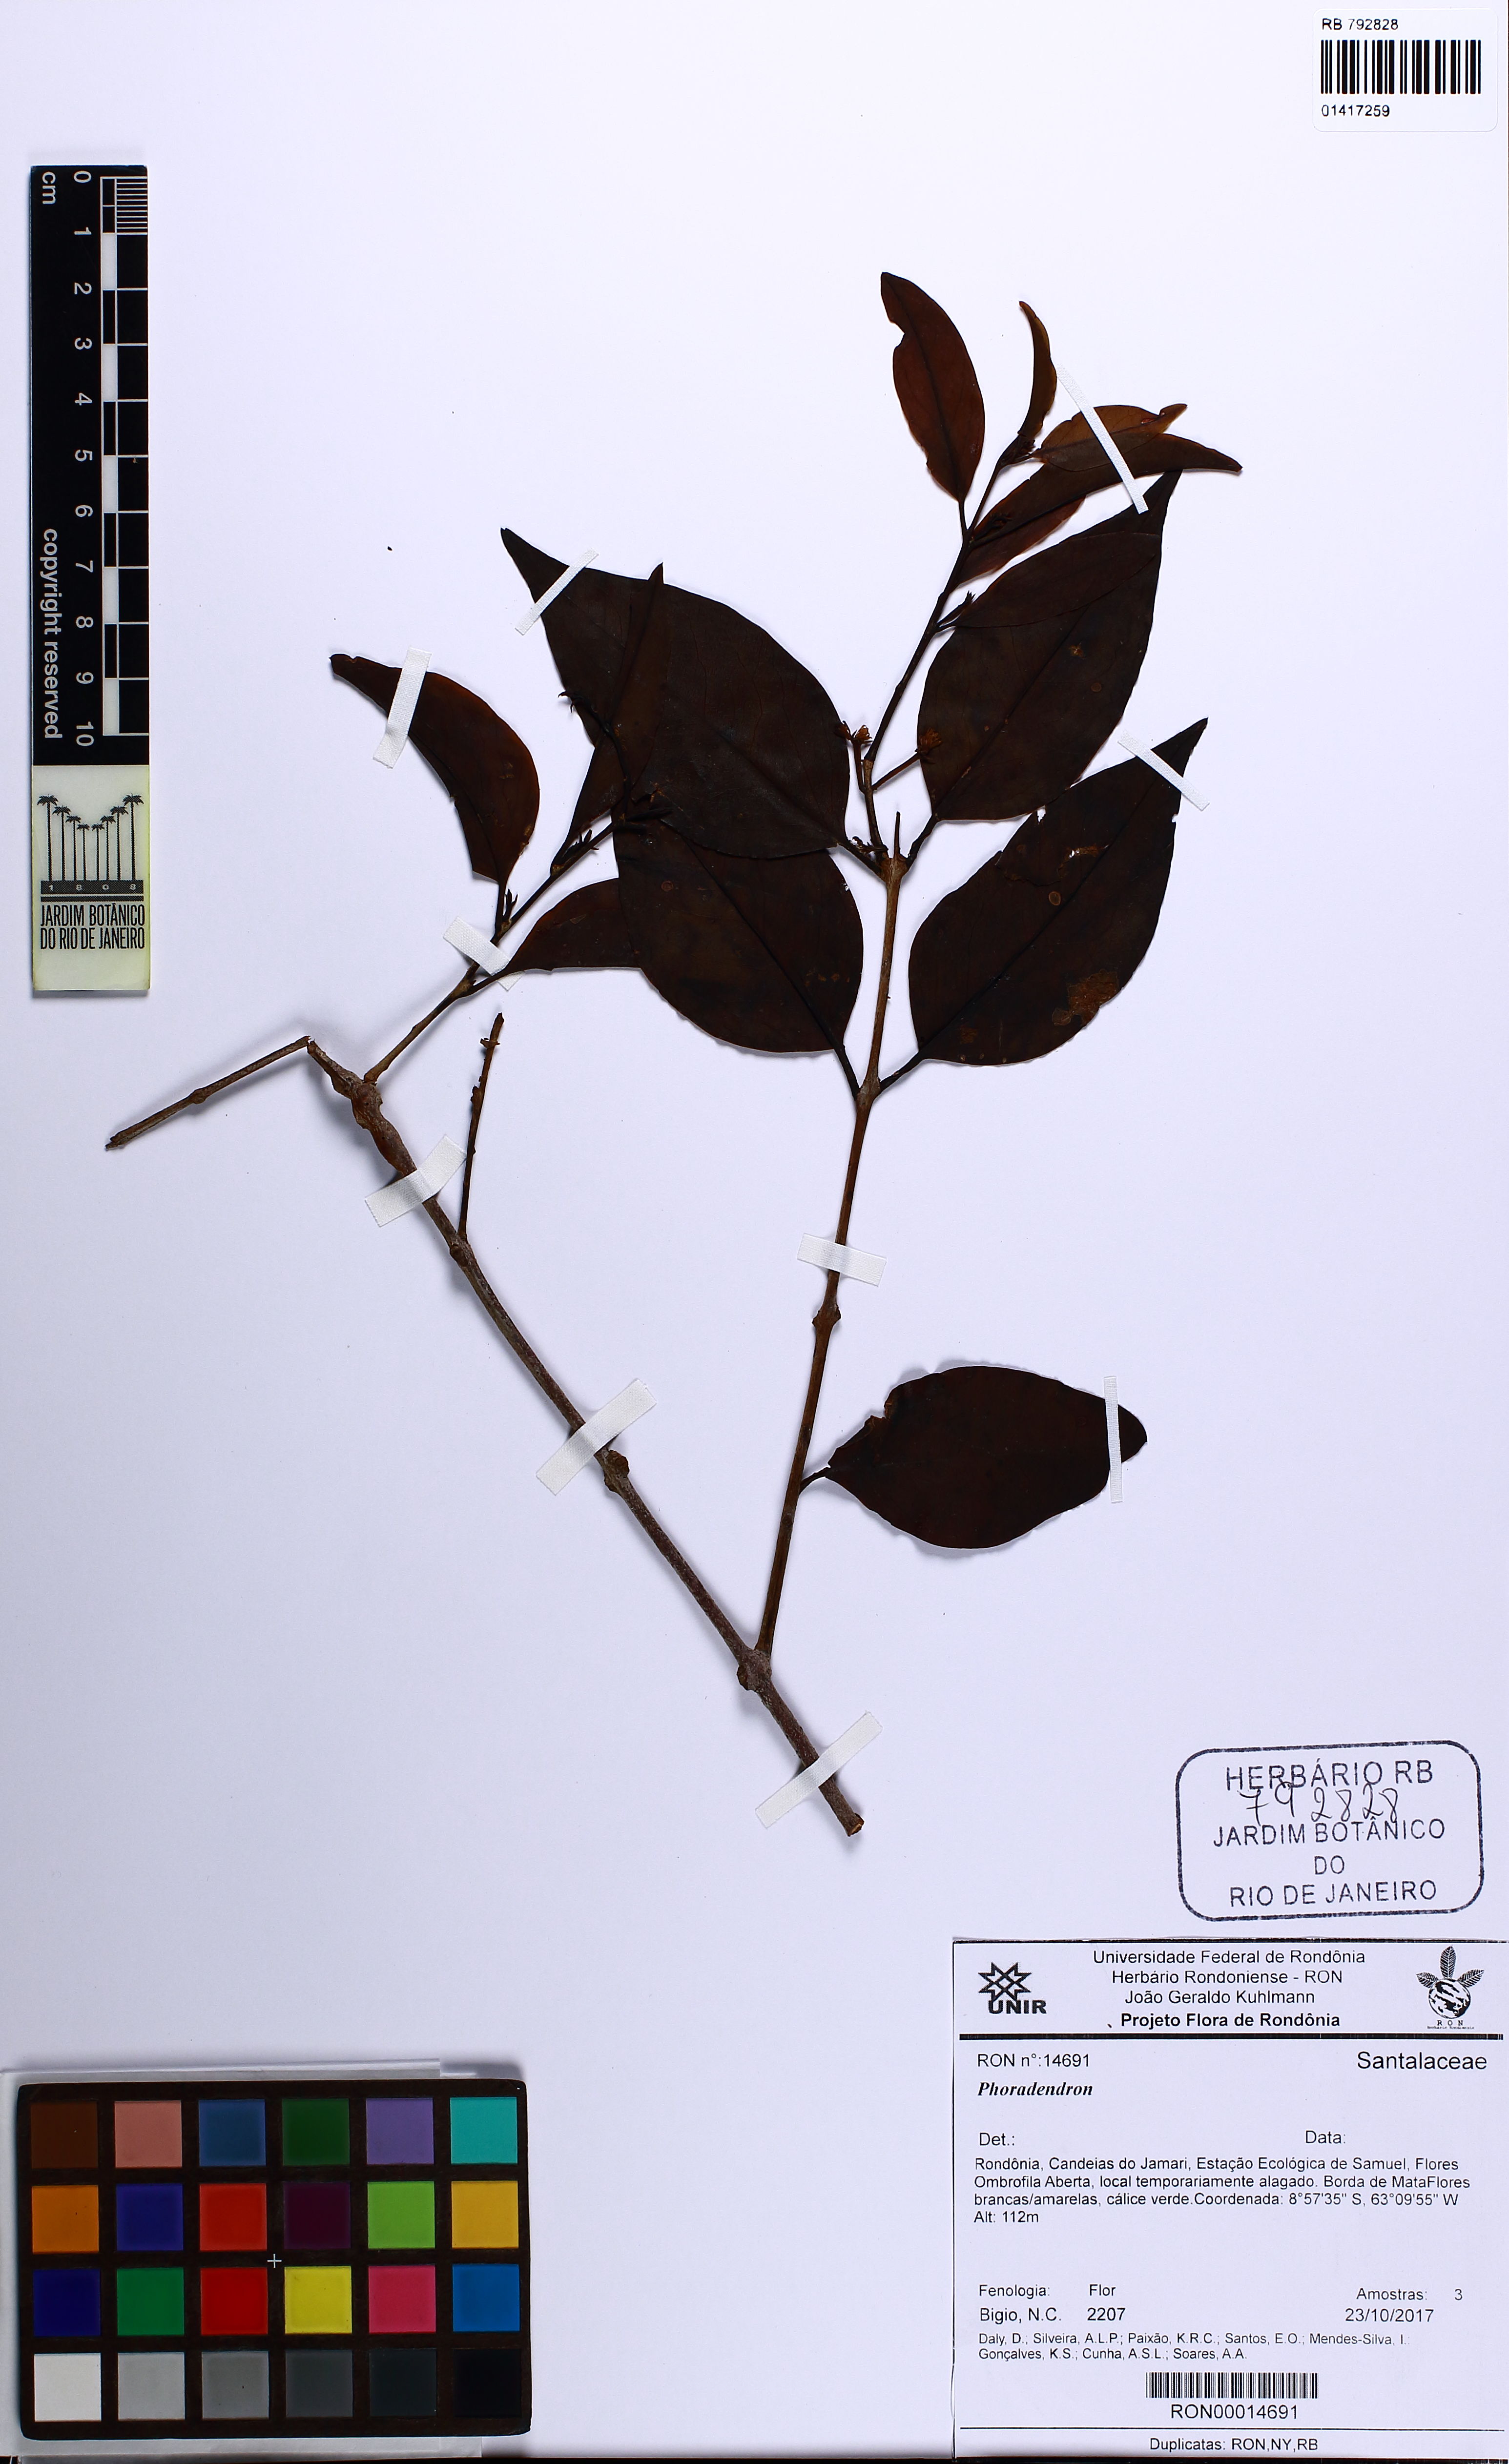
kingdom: Plantae
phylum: Tracheophyta
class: Magnoliopsida
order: Santalales
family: Loranthaceae
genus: Passovia
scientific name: Passovia
